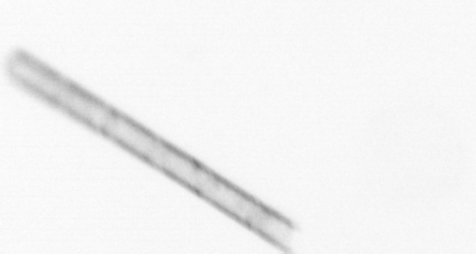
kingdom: Chromista
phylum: Ochrophyta
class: Bacillariophyceae
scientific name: Bacillariophyceae
